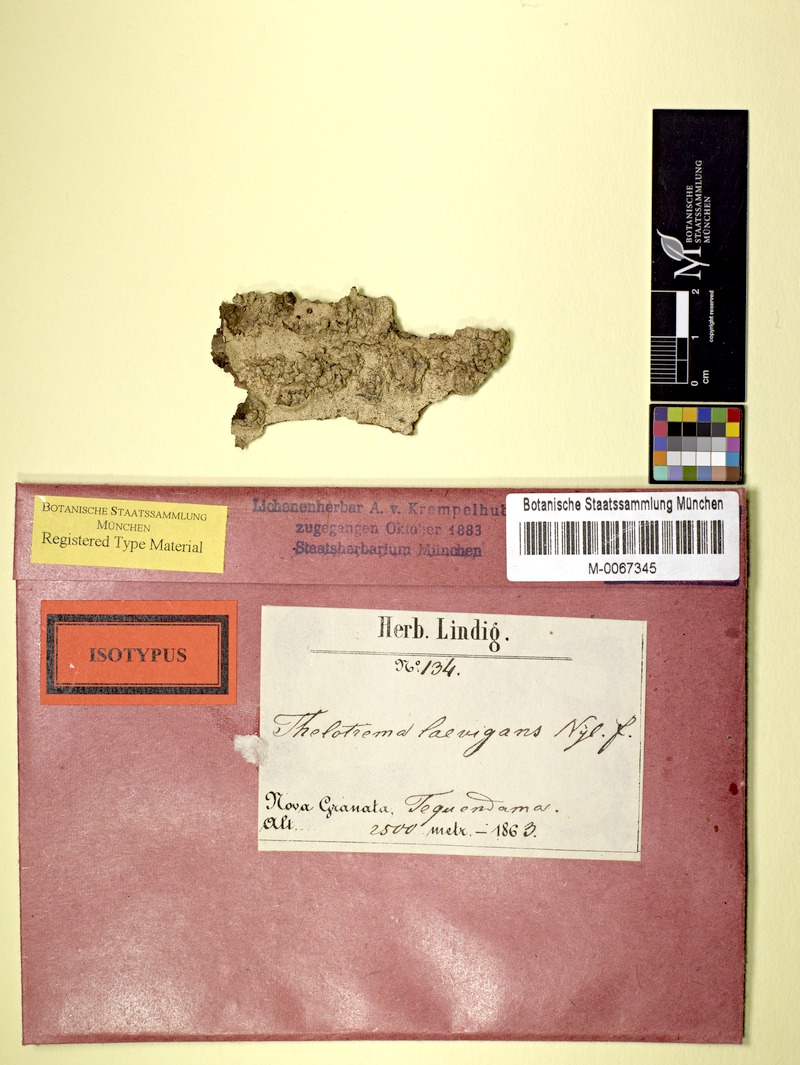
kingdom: Fungi
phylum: Ascomycota
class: Lecanoromycetes
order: Ostropales
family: Graphidaceae
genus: Clandestinotrema
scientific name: Clandestinotrema erumpens
